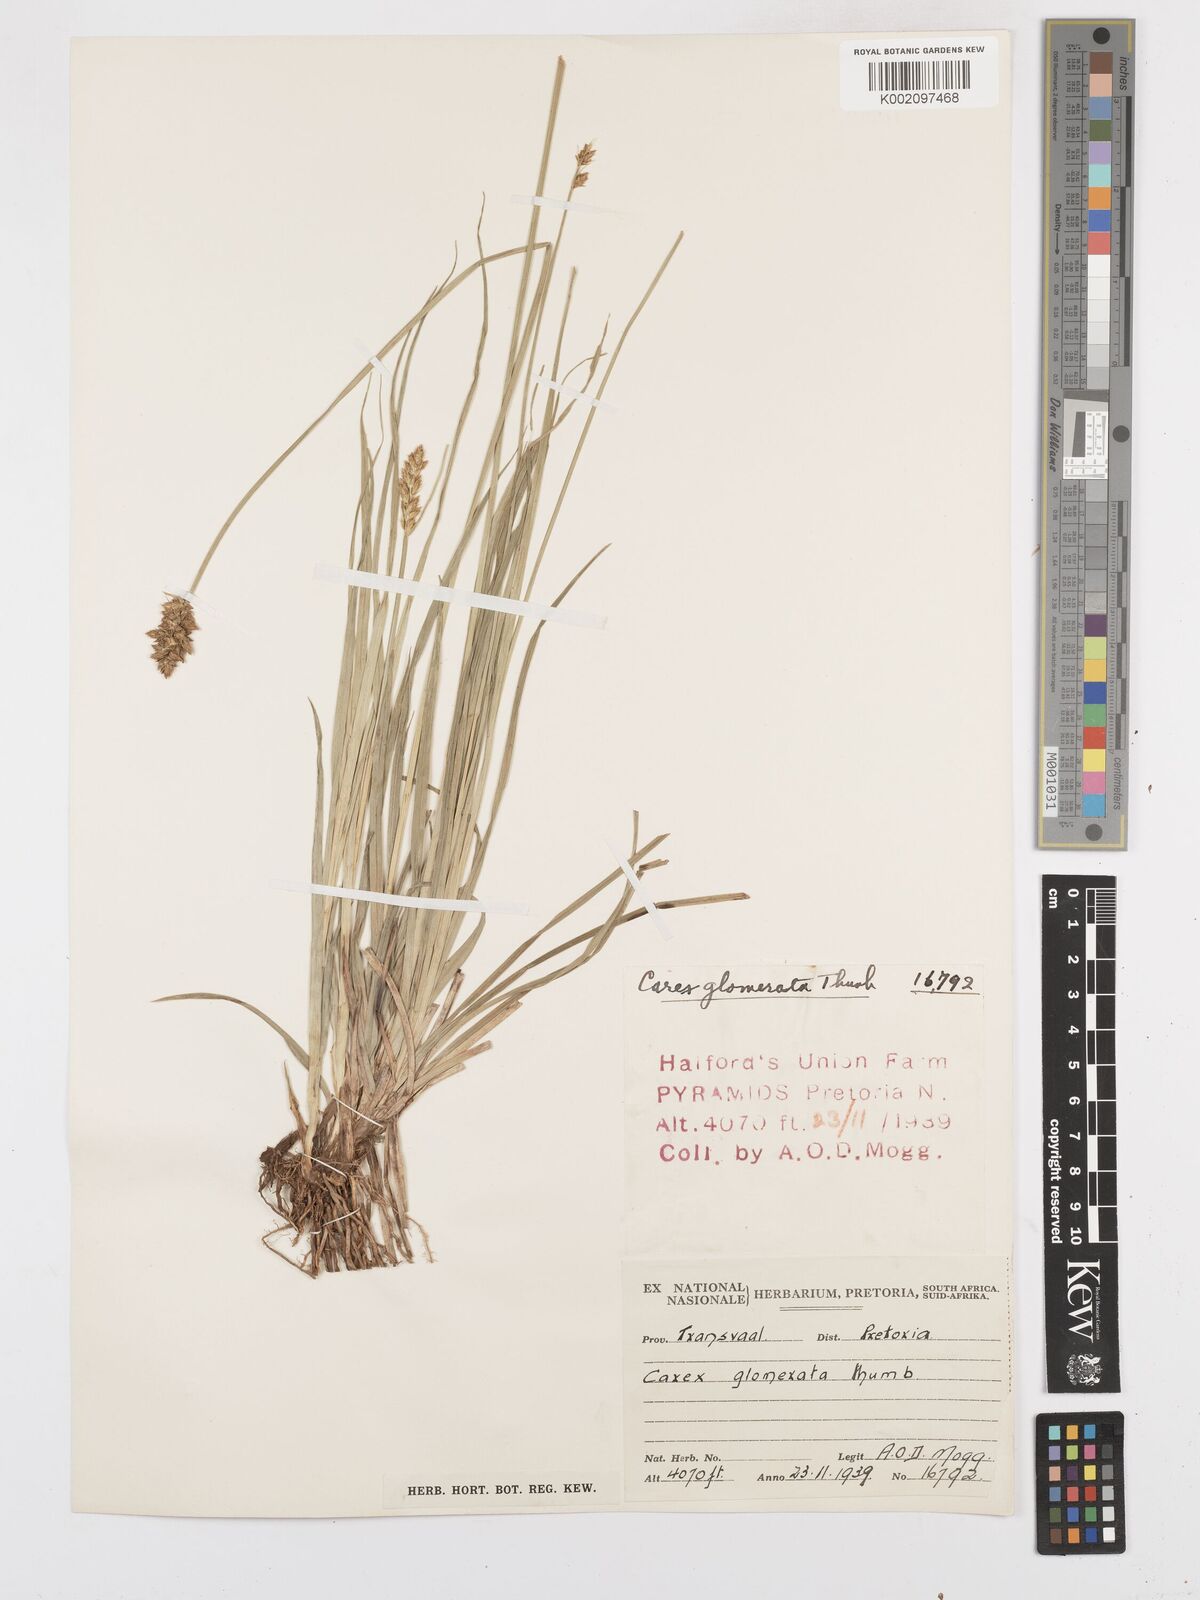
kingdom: Plantae
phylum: Tracheophyta
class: Liliopsida
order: Poales
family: Cyperaceae
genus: Carex
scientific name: Carex glomerata
